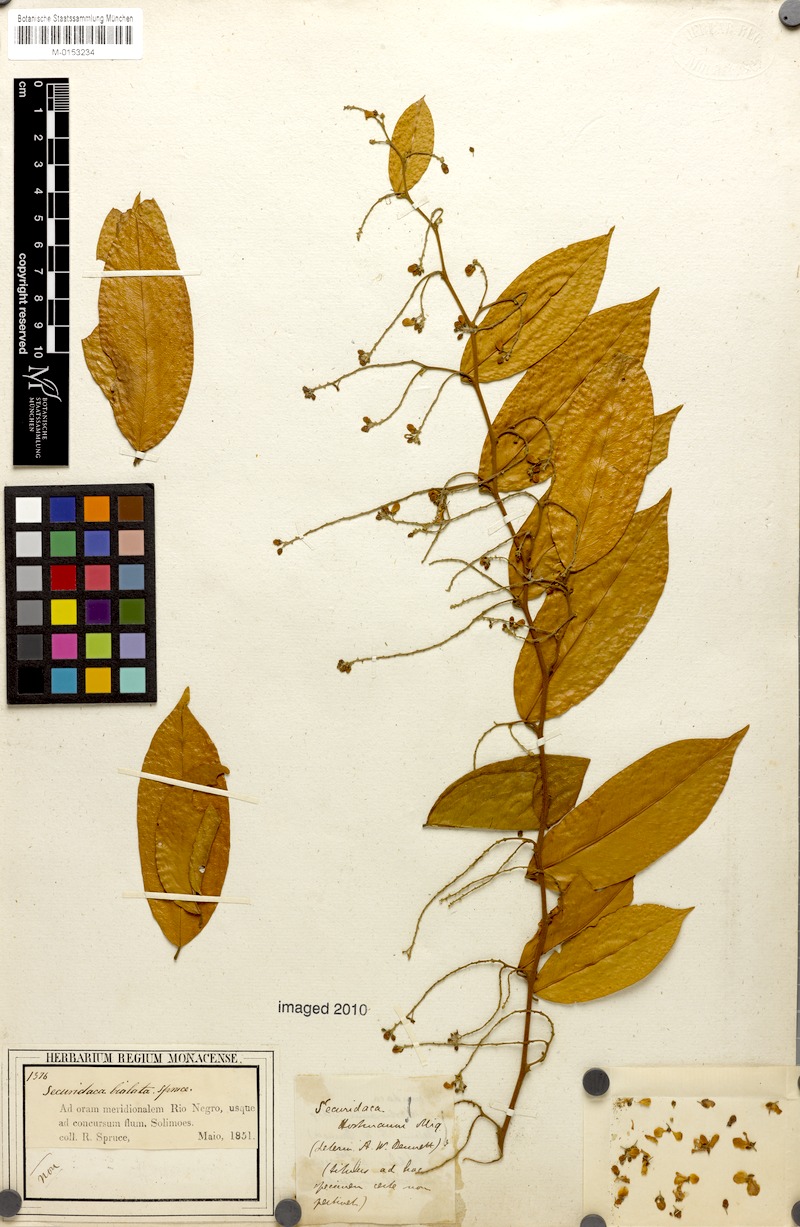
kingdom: Plantae
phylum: Tracheophyta
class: Magnoliopsida
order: Fabales
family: Polygalaceae
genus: Securidaca
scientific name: Securidaca paniculata
